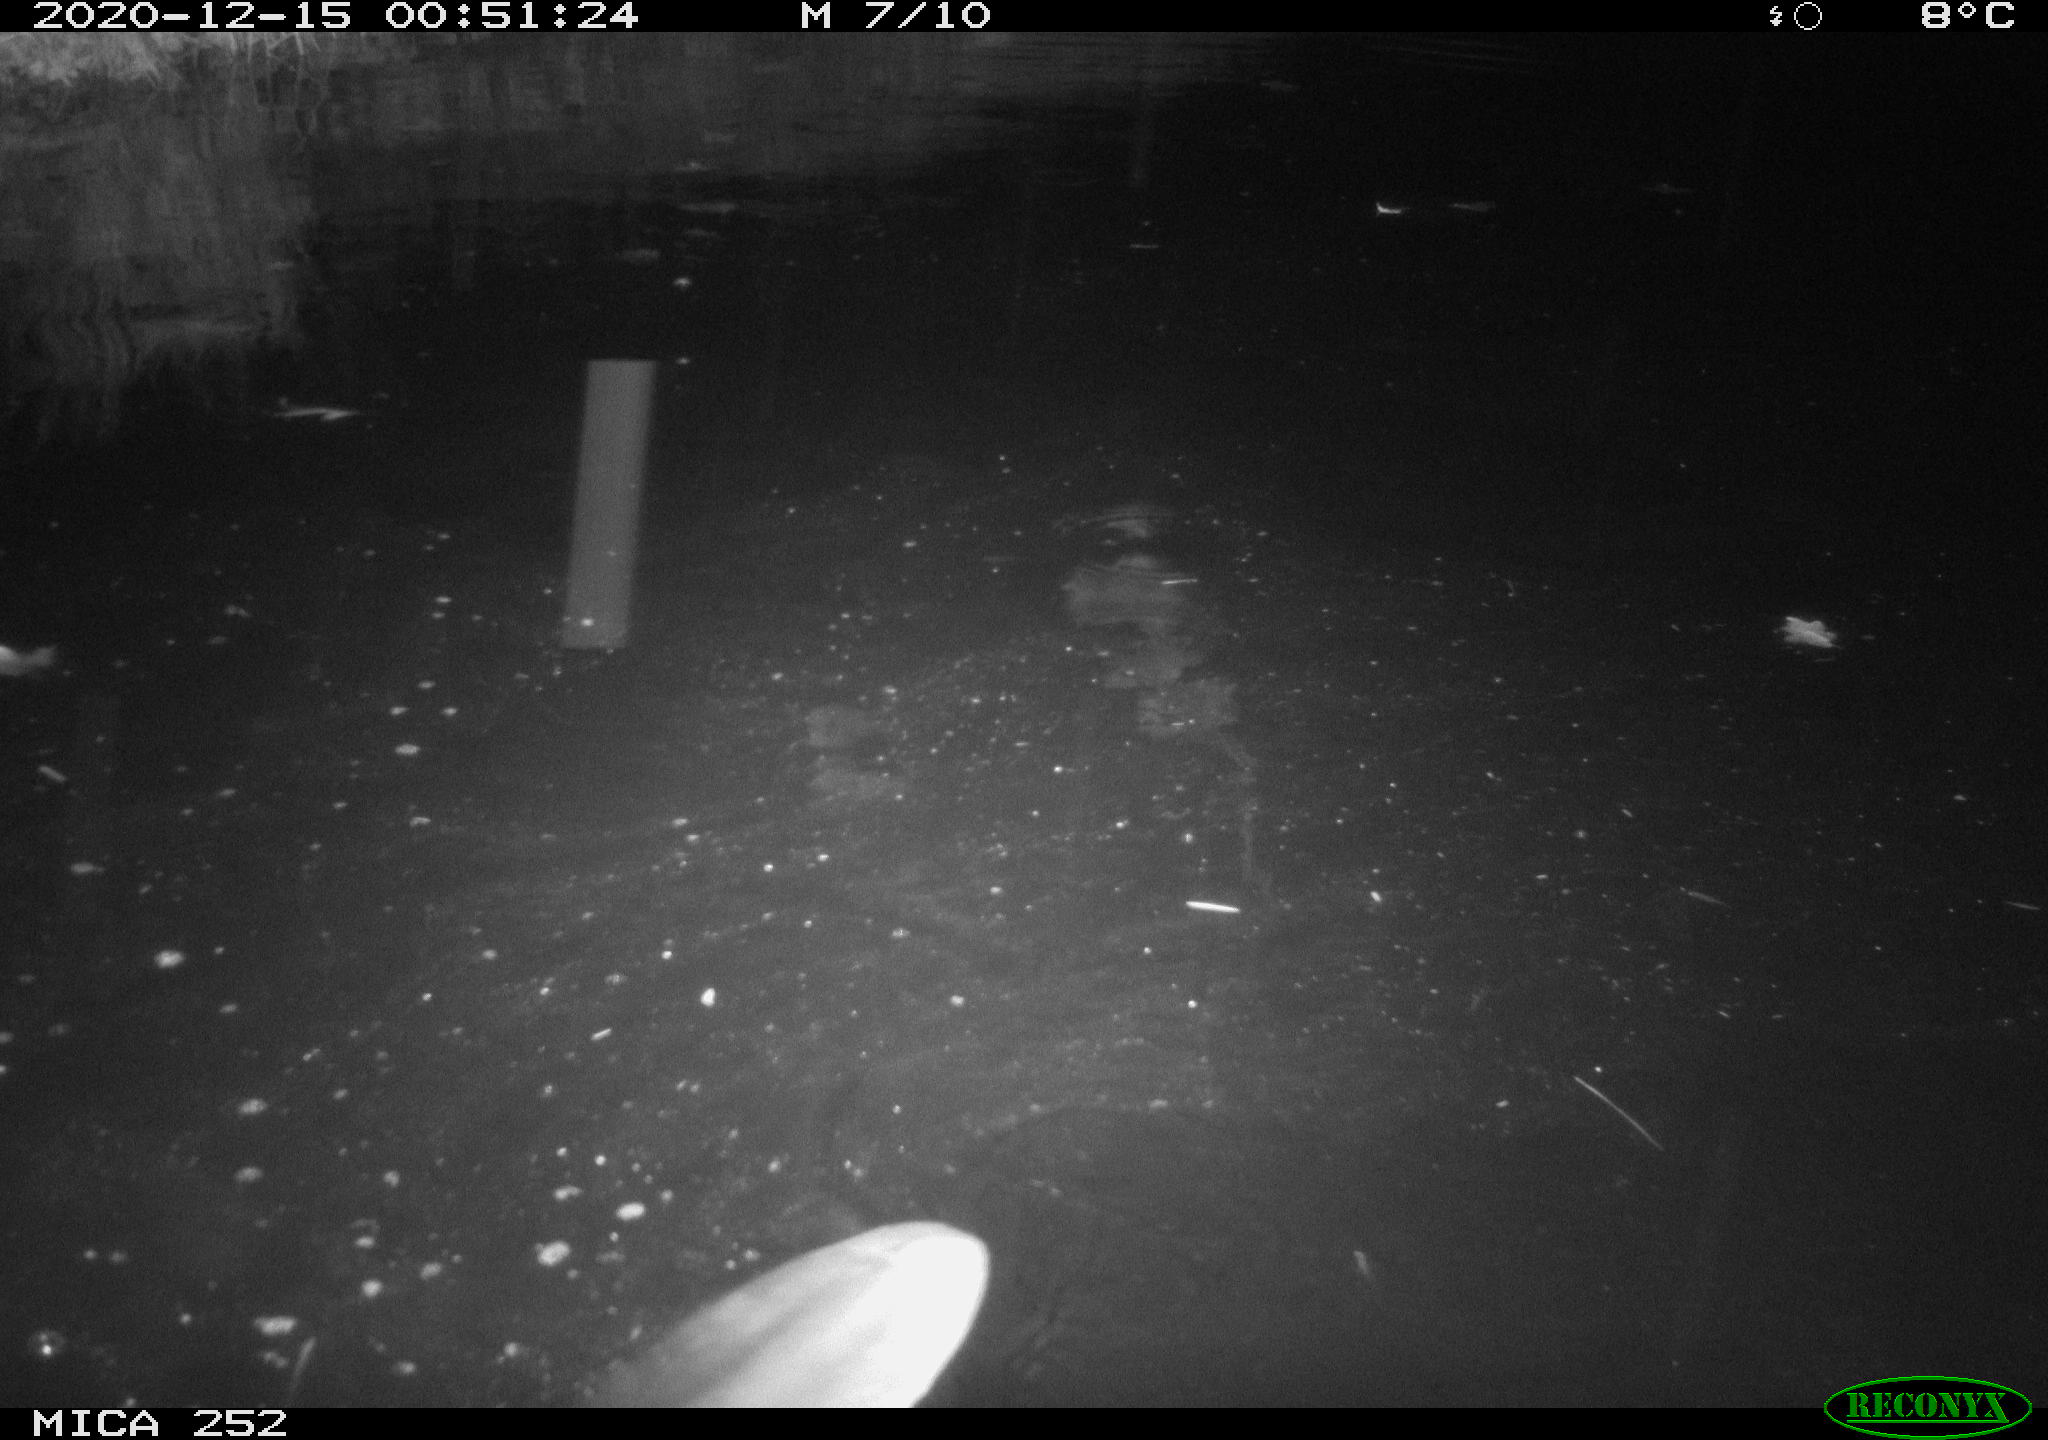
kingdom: Animalia
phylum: Chordata
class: Mammalia
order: Rodentia
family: Castoridae
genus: Castor
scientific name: Castor fiber
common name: Eurasian beaver
